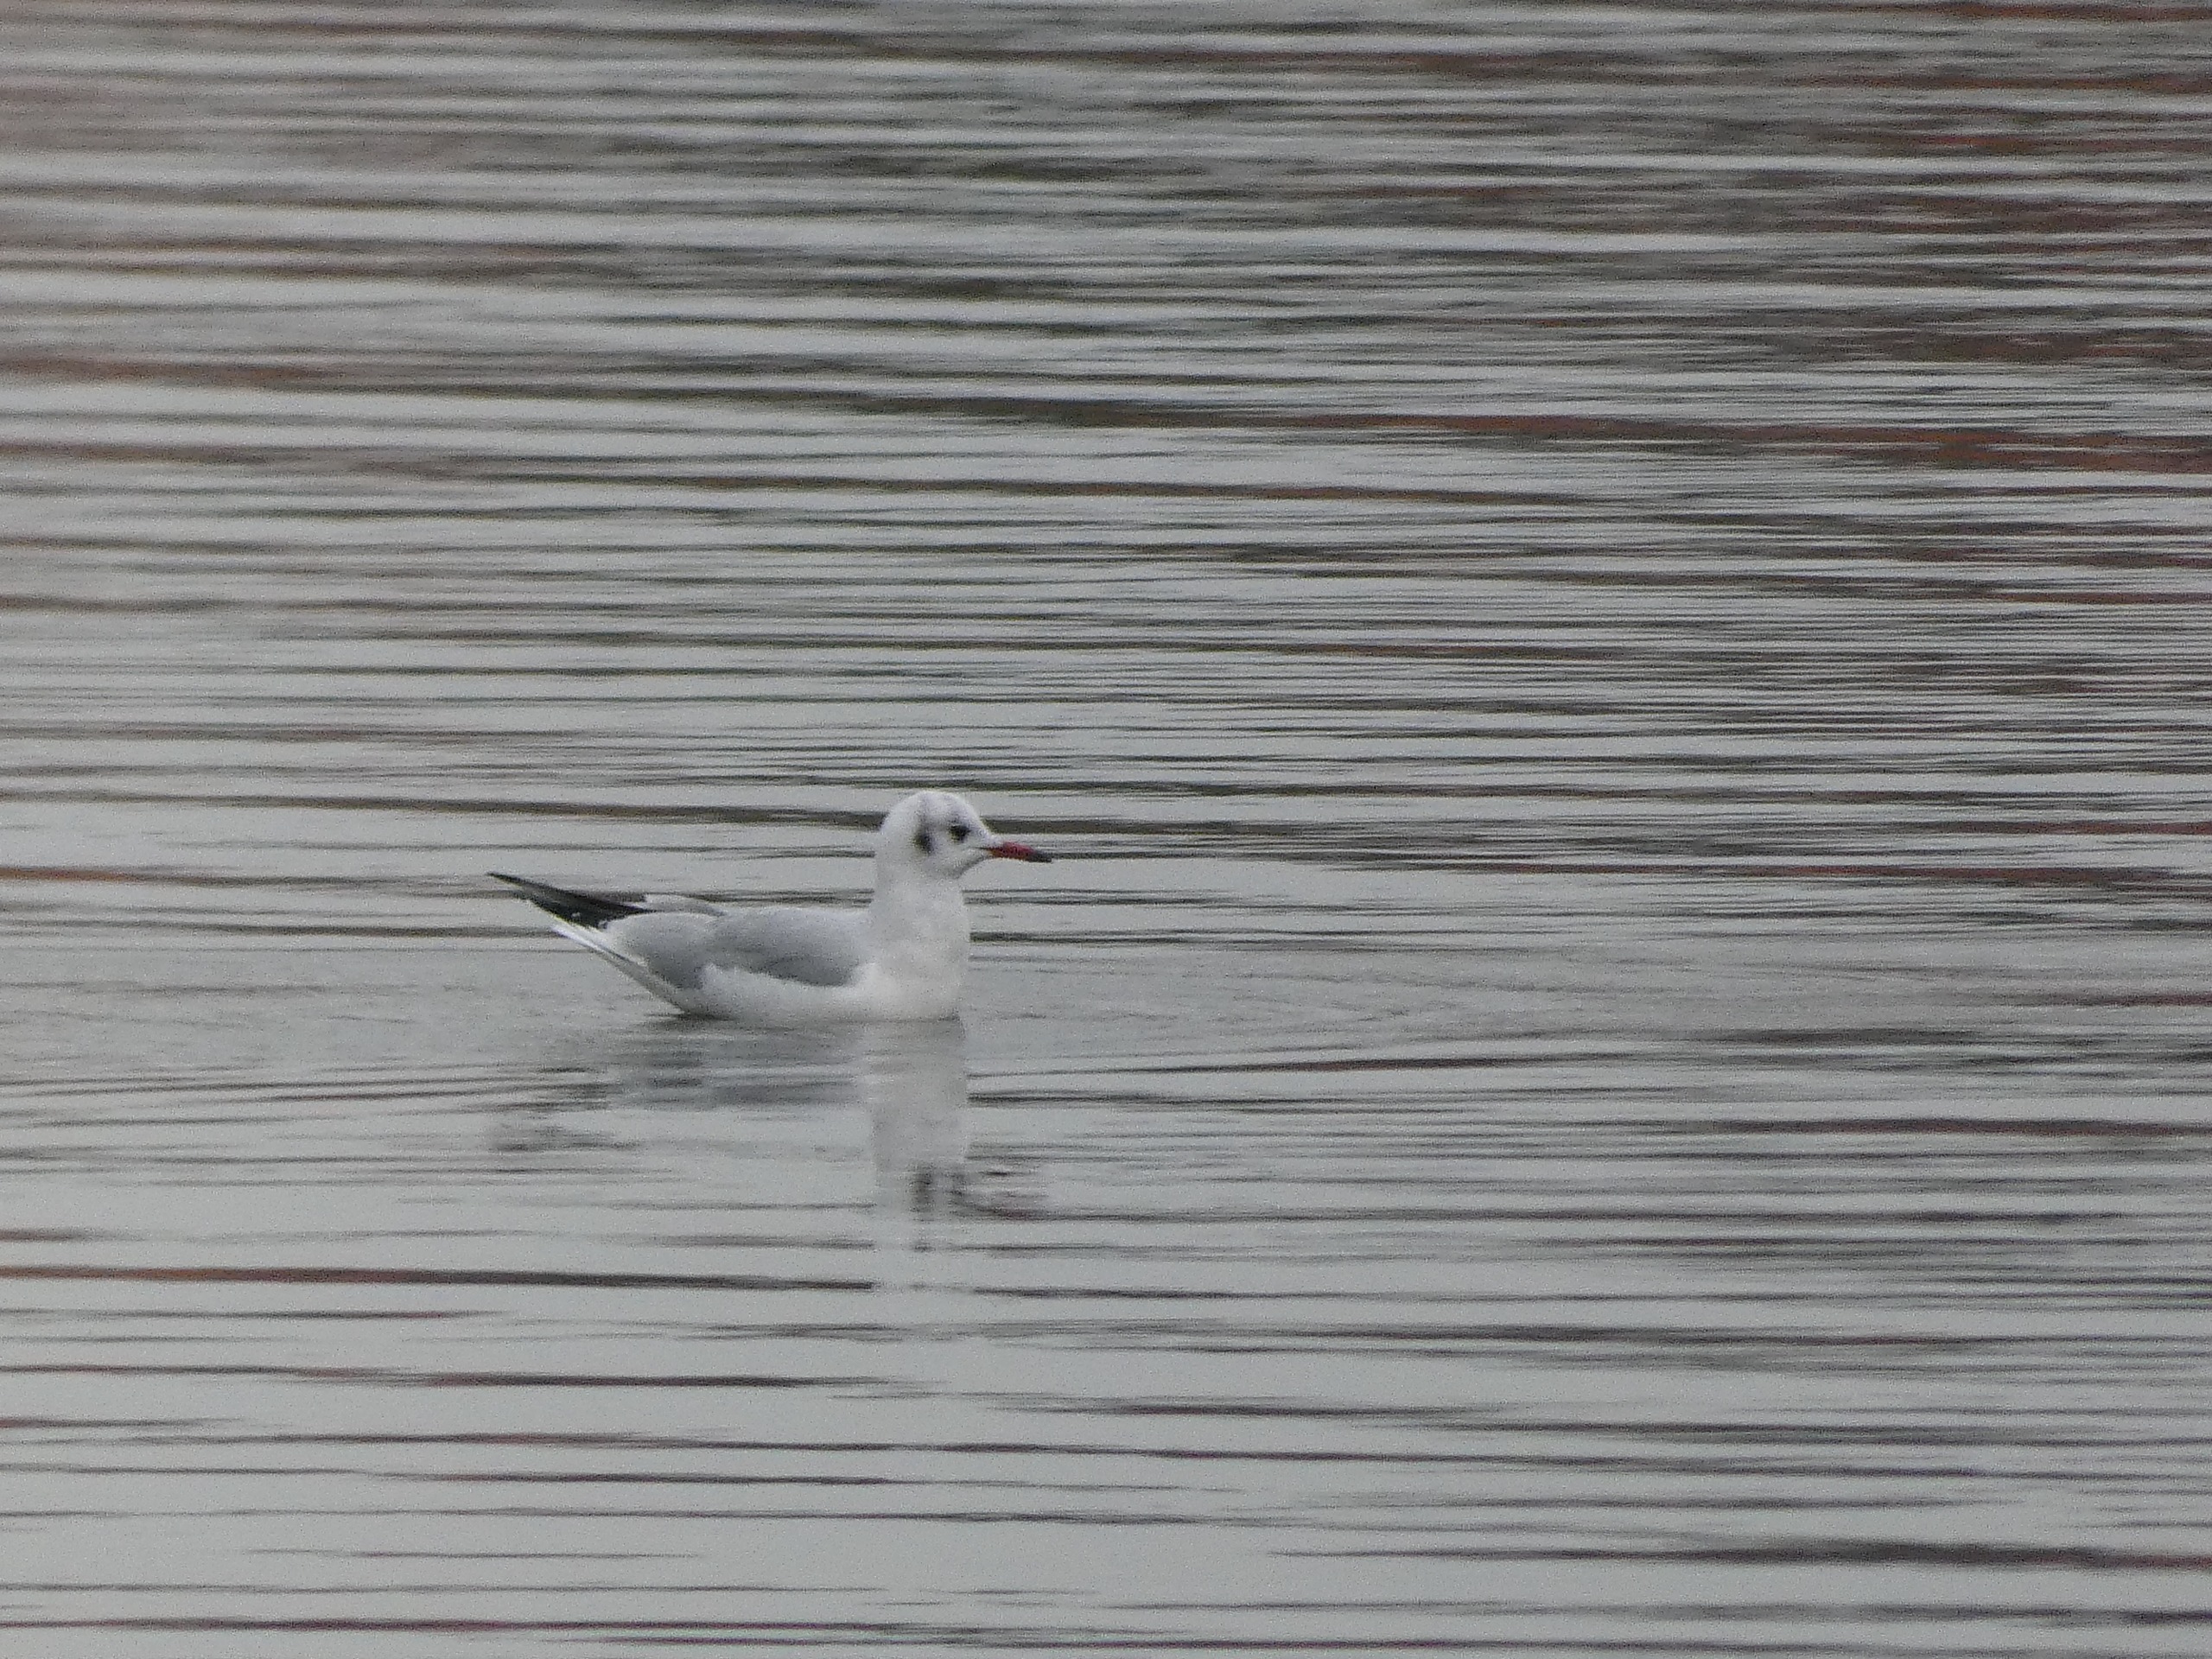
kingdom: Animalia
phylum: Chordata
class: Aves
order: Charadriiformes
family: Laridae
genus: Chroicocephalus
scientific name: Chroicocephalus ridibundus
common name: Hættemåge
